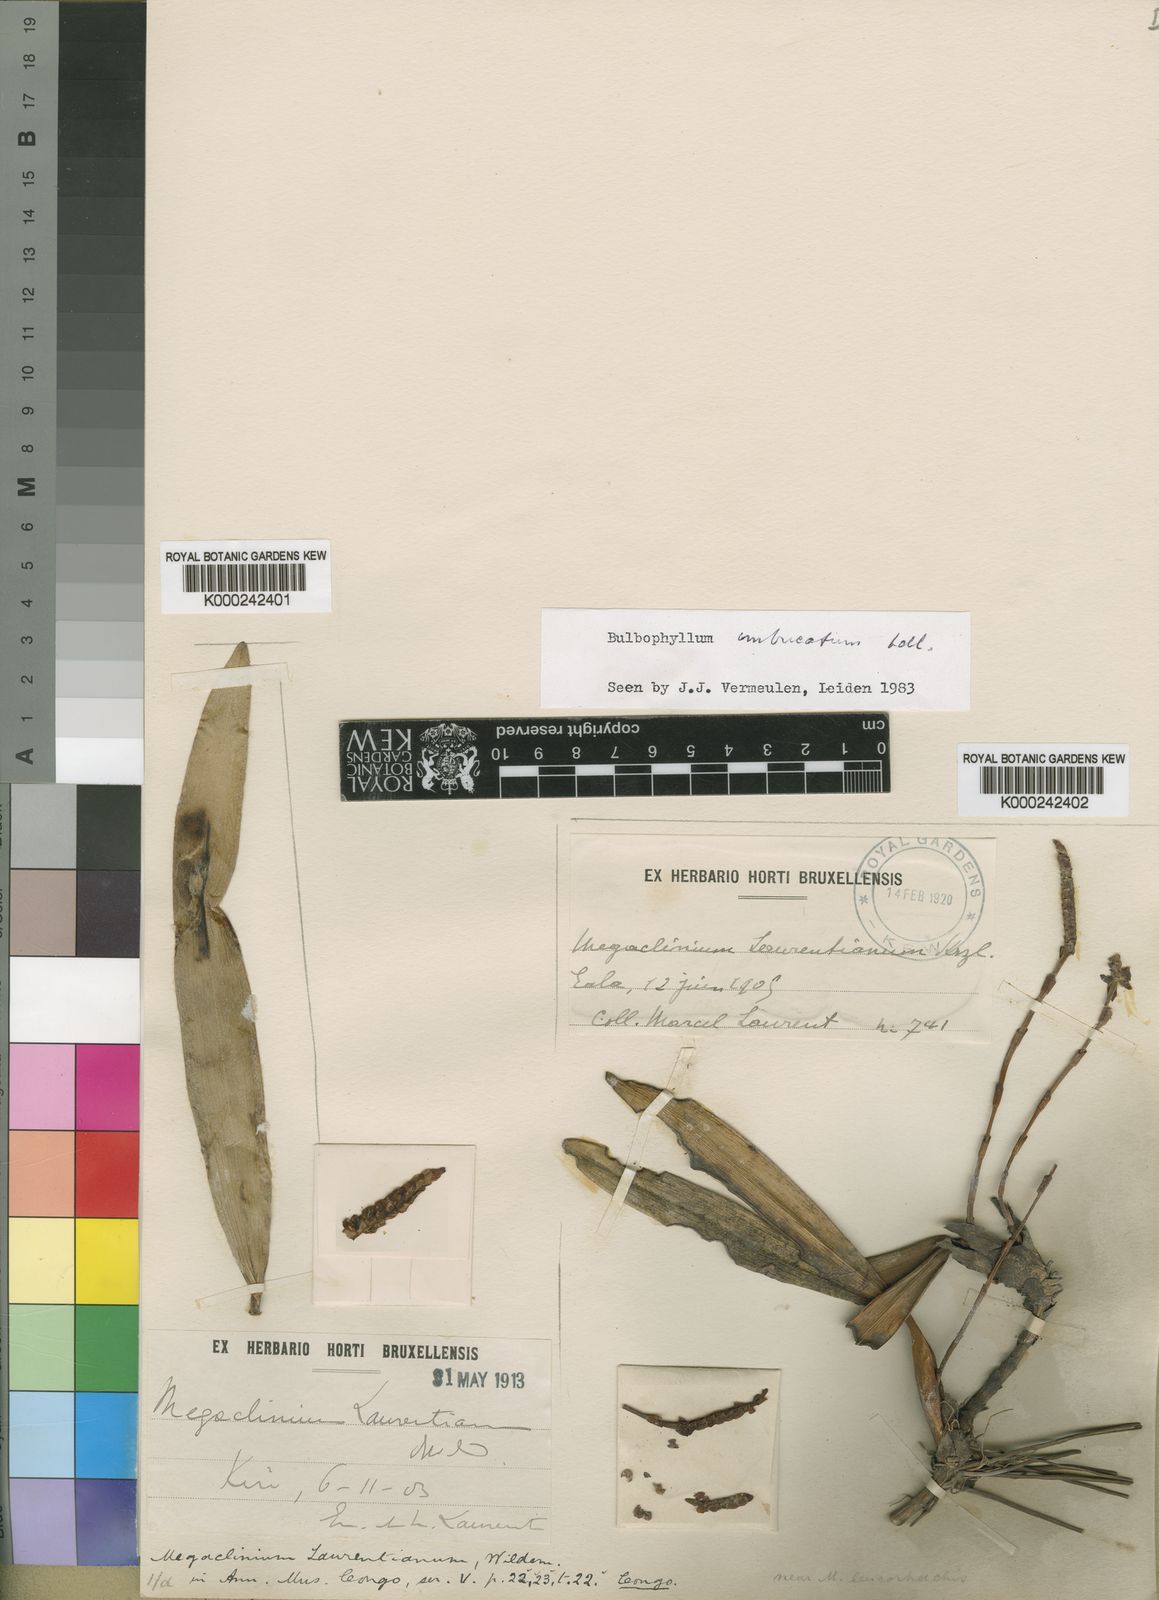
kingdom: Plantae
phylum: Tracheophyta
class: Liliopsida
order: Asparagales
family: Orchidaceae
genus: Bulbophyllum
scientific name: Bulbophyllum imbricatum
